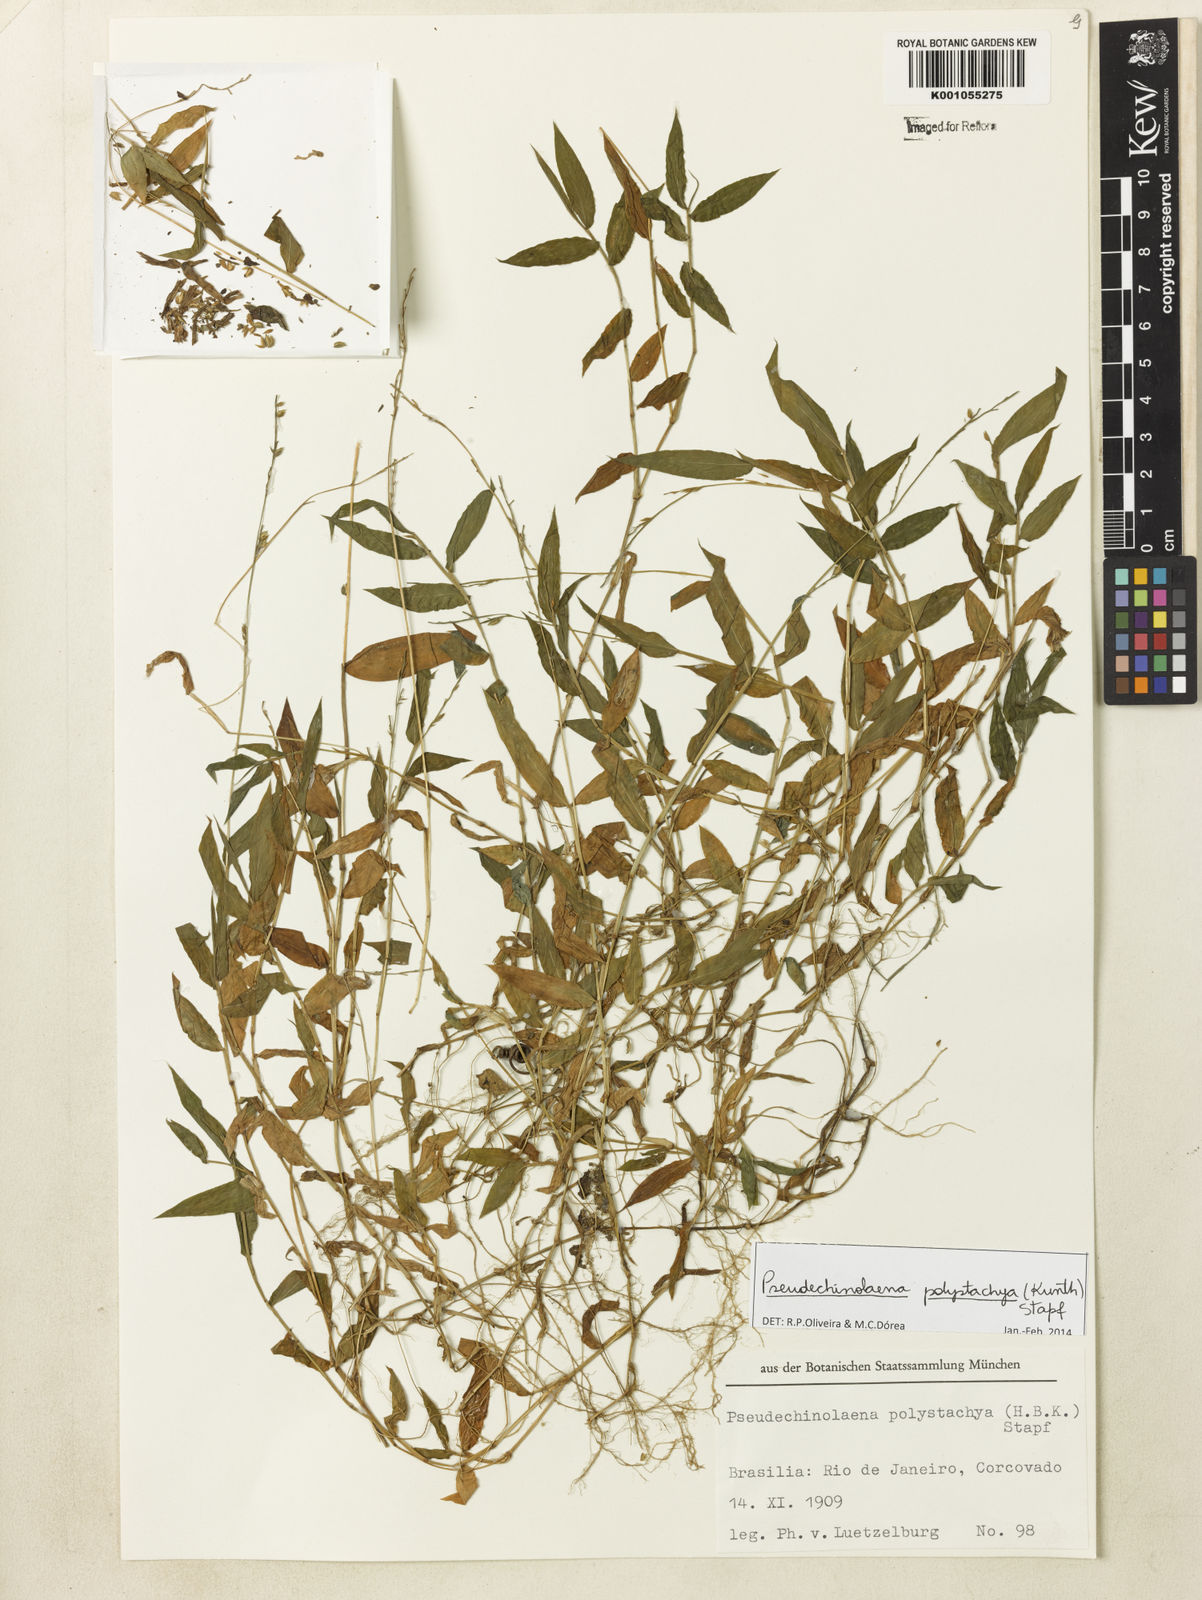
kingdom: Plantae
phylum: Tracheophyta
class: Liliopsida
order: Poales
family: Poaceae
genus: Pseudechinolaena
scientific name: Pseudechinolaena polystachya
